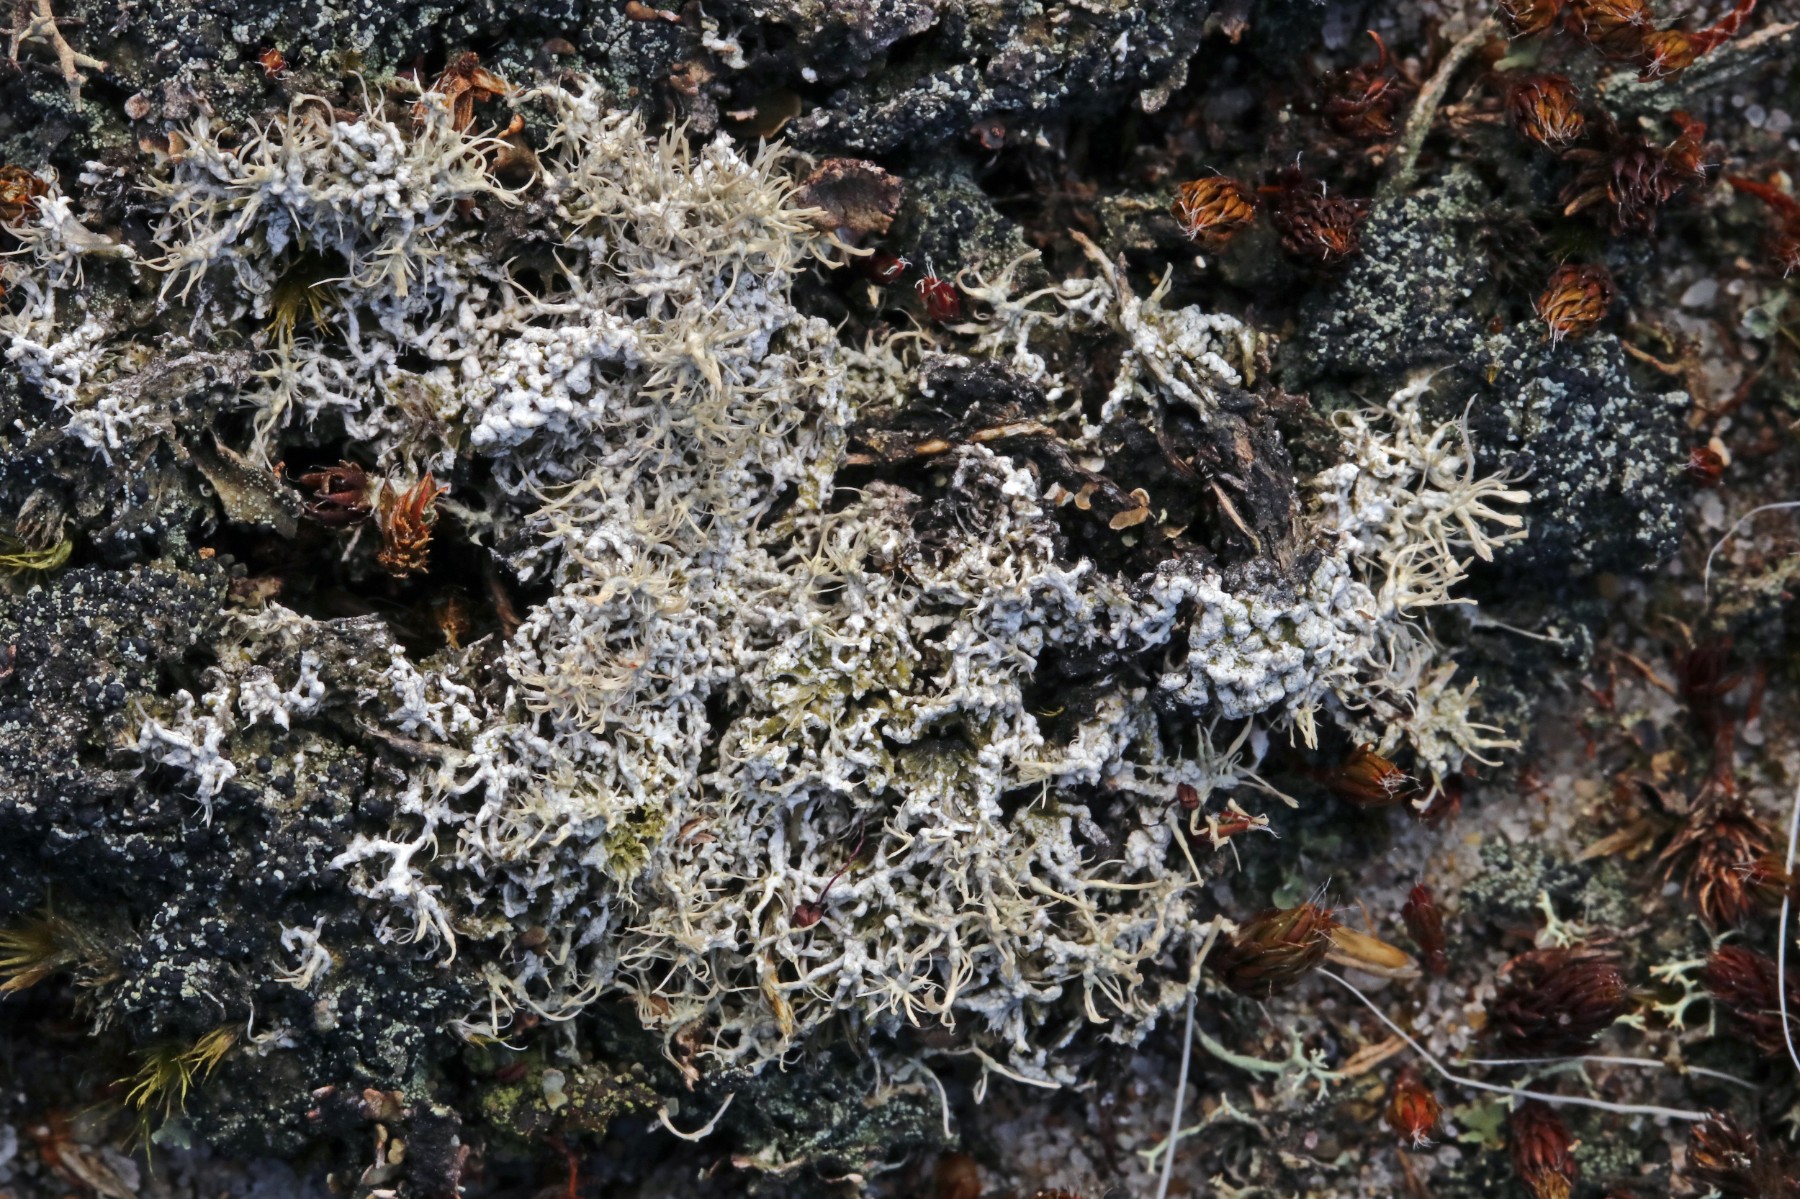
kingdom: Fungi
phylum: Ascomycota
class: Lecanoromycetes
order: Pertusariales
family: Ochrolechiaceae
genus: Ochrolechia
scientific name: Ochrolechia frigida
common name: fjeld-blegskivelav
